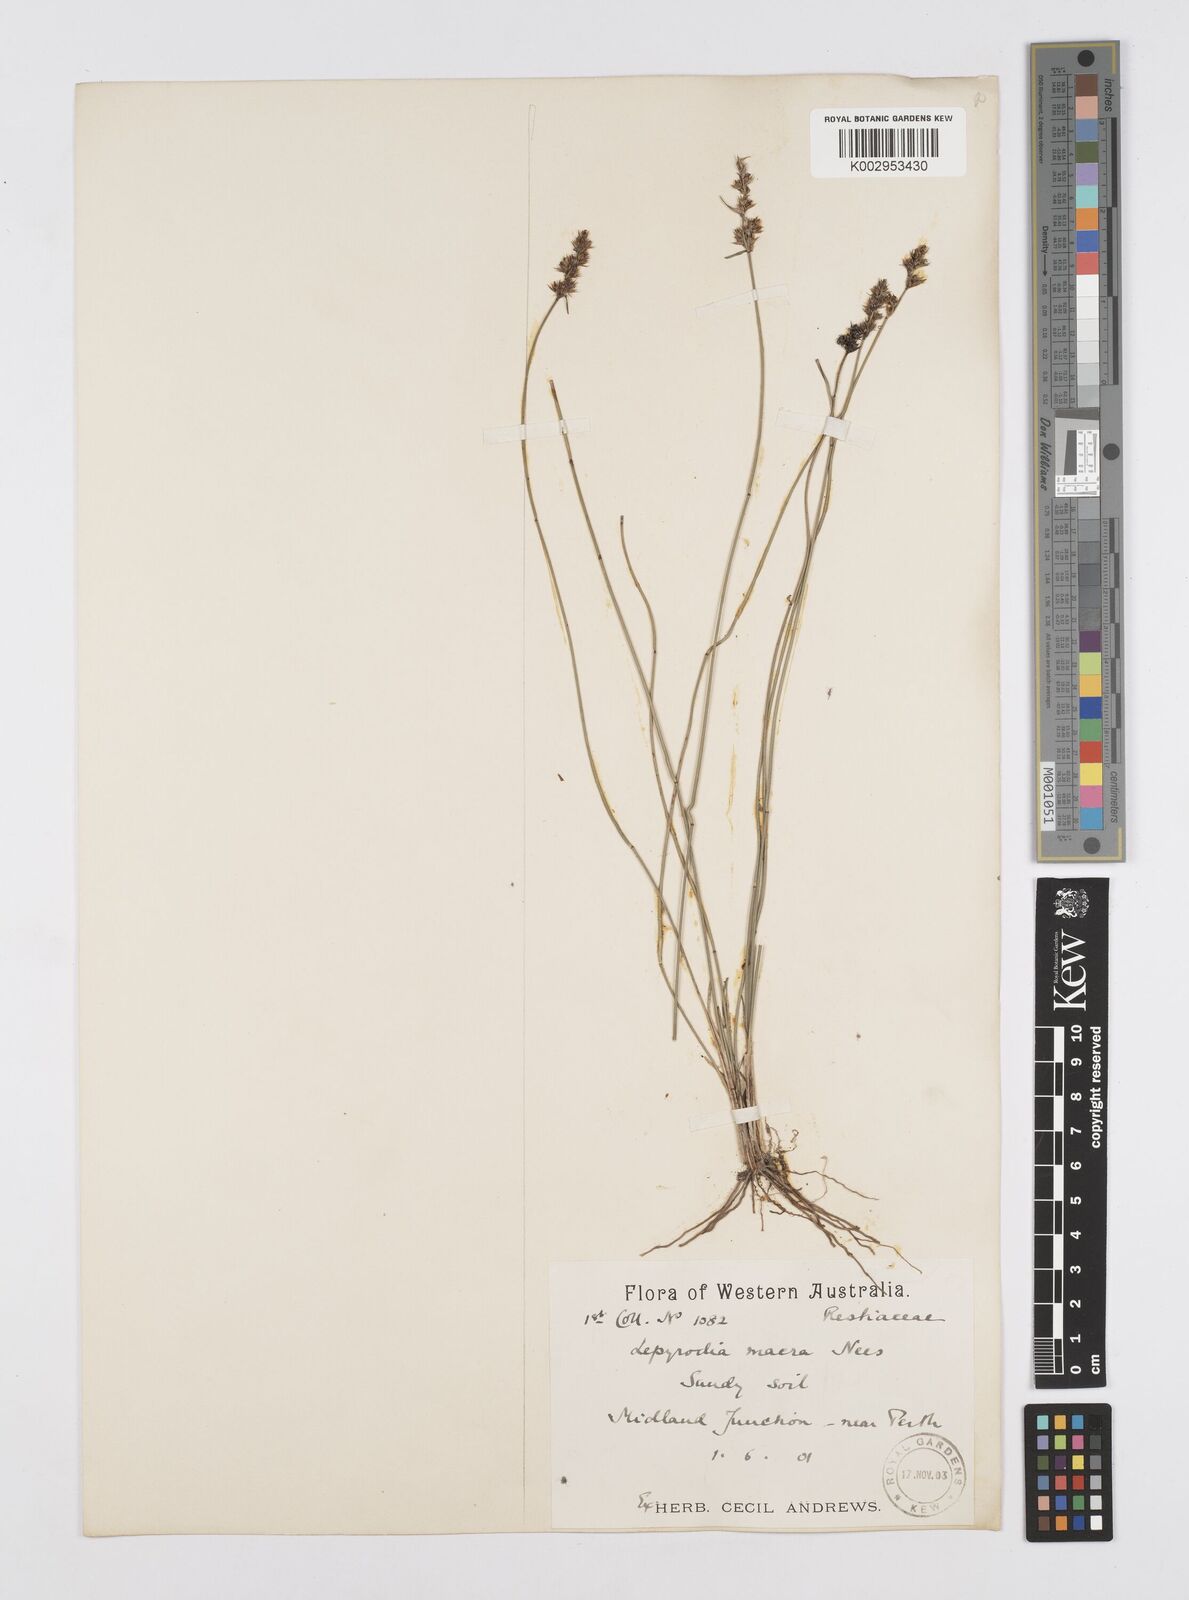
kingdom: Plantae
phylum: Tracheophyta
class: Liliopsida
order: Poales
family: Restionaceae
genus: Lepyrodia
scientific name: Lepyrodia macra
